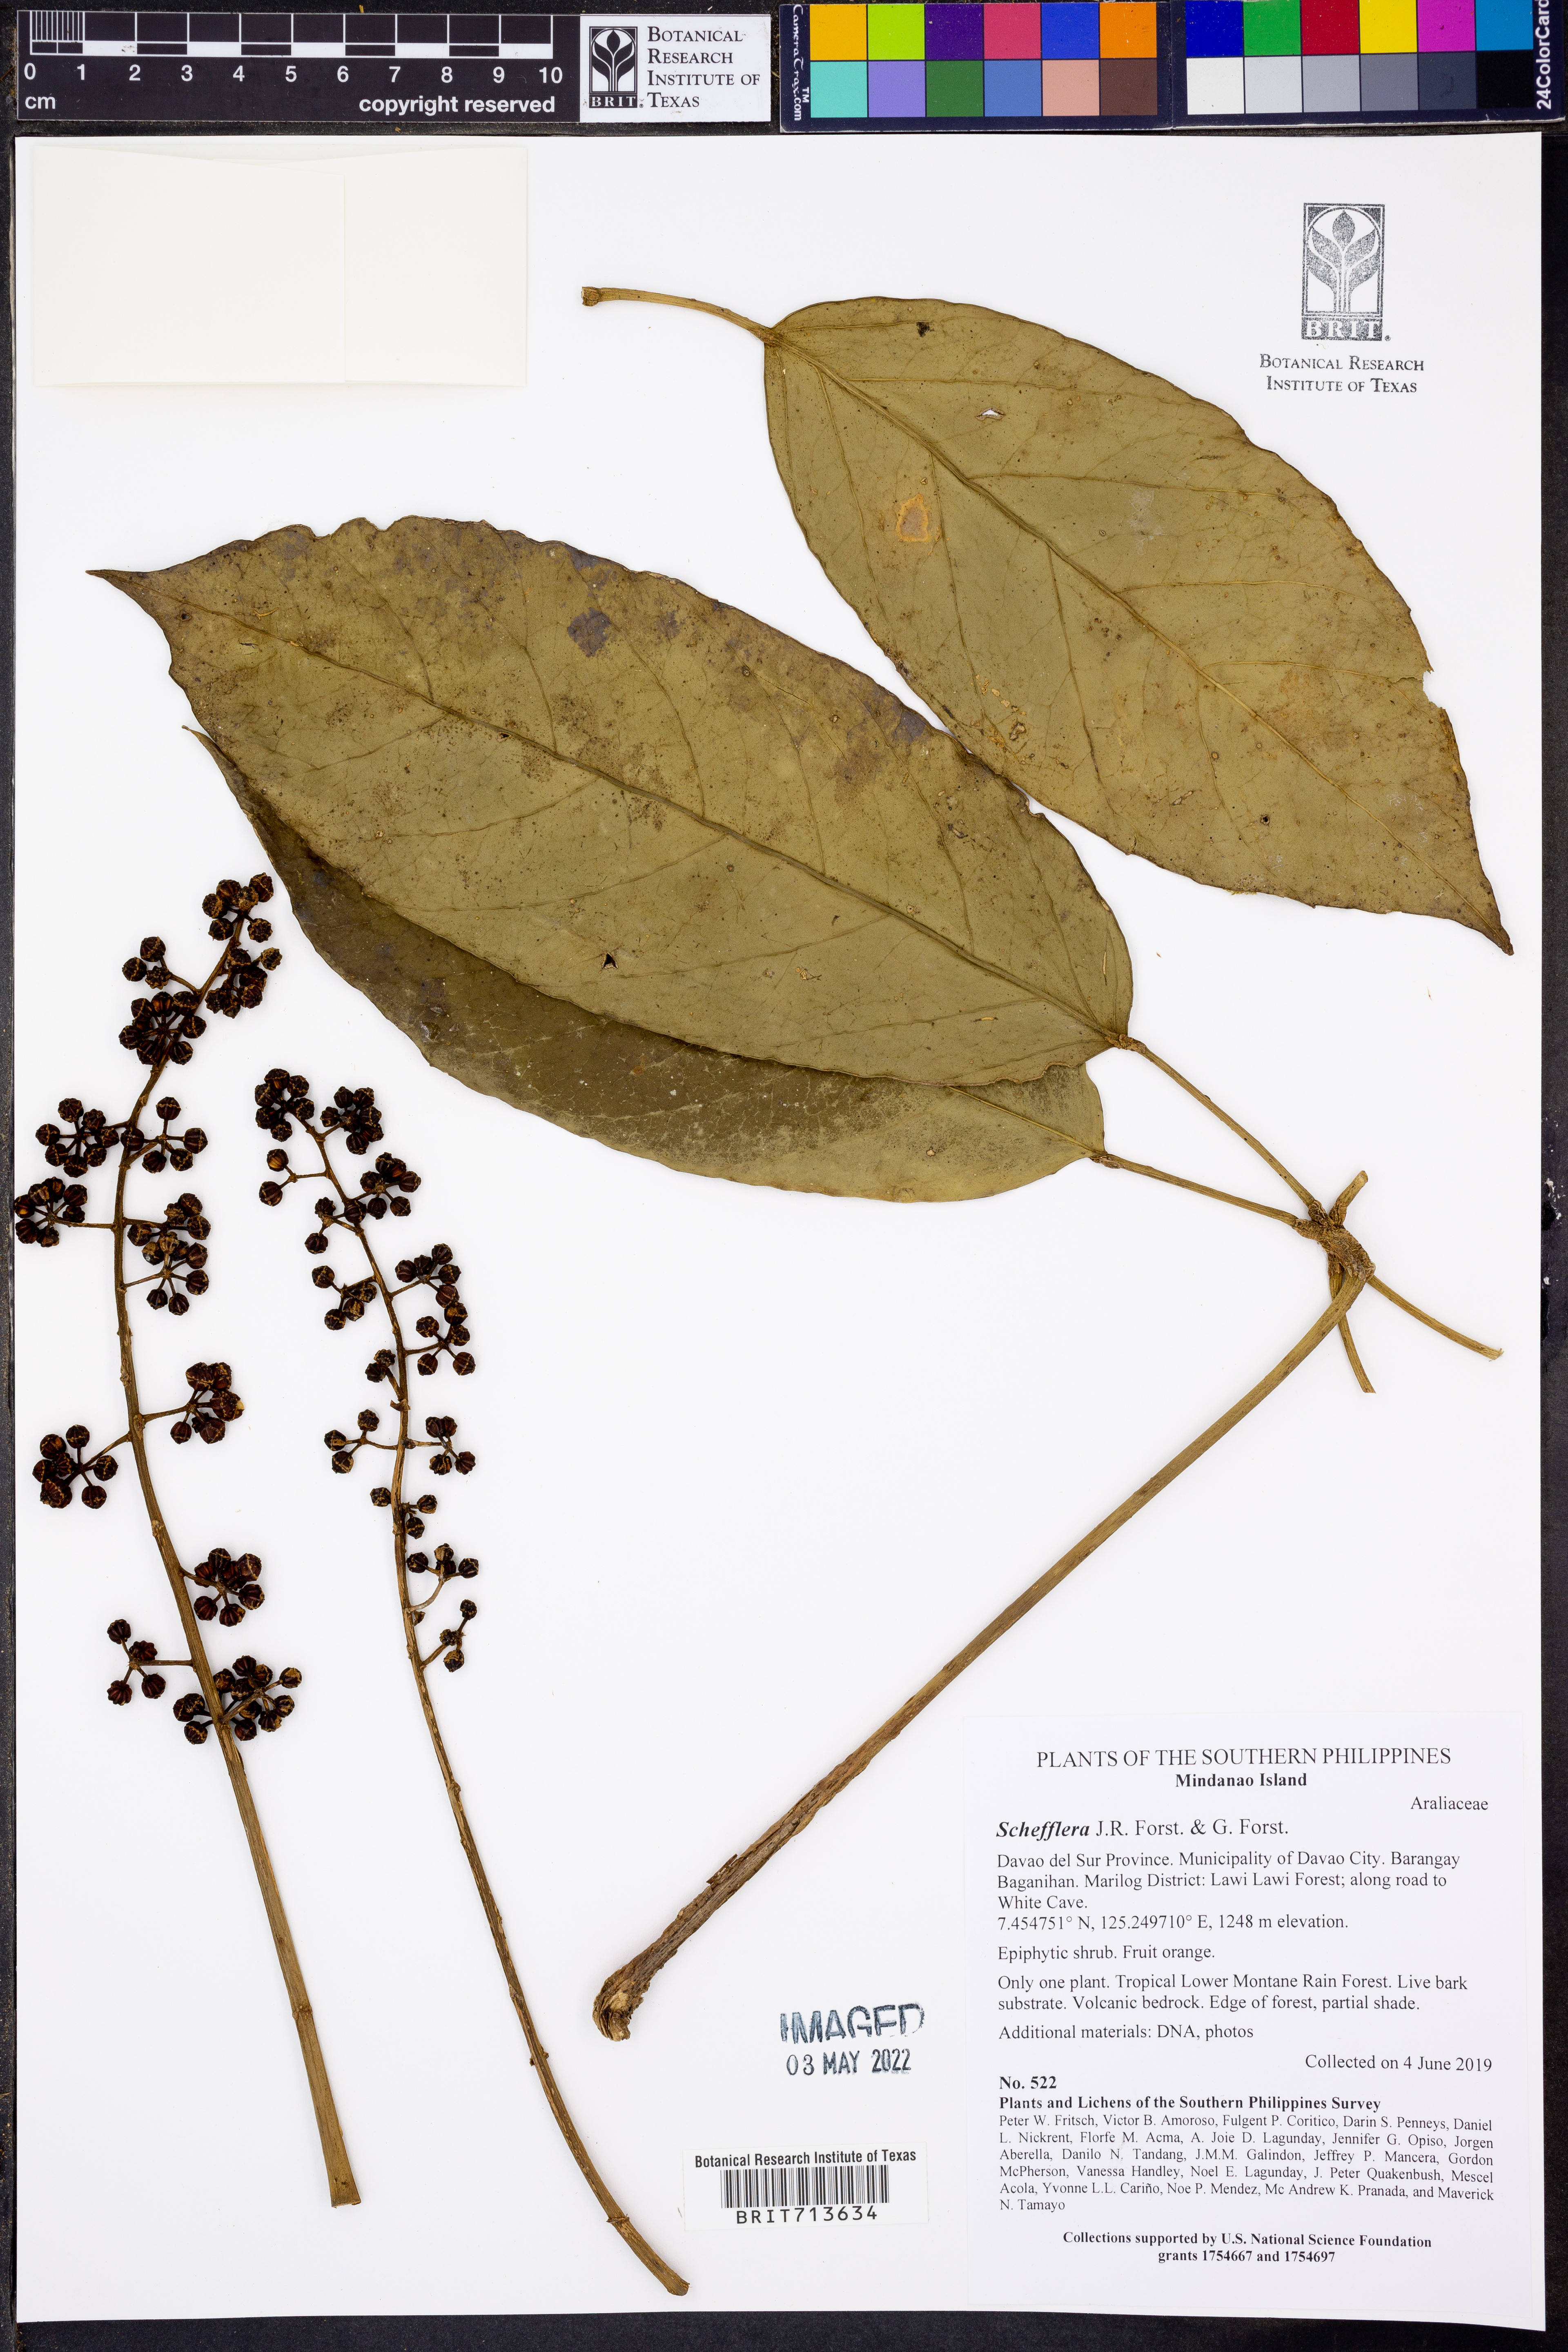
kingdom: Plantae
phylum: Tracheophyta
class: Magnoliopsida
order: Apiales
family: Araliaceae
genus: Schefflera
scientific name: Schefflera
